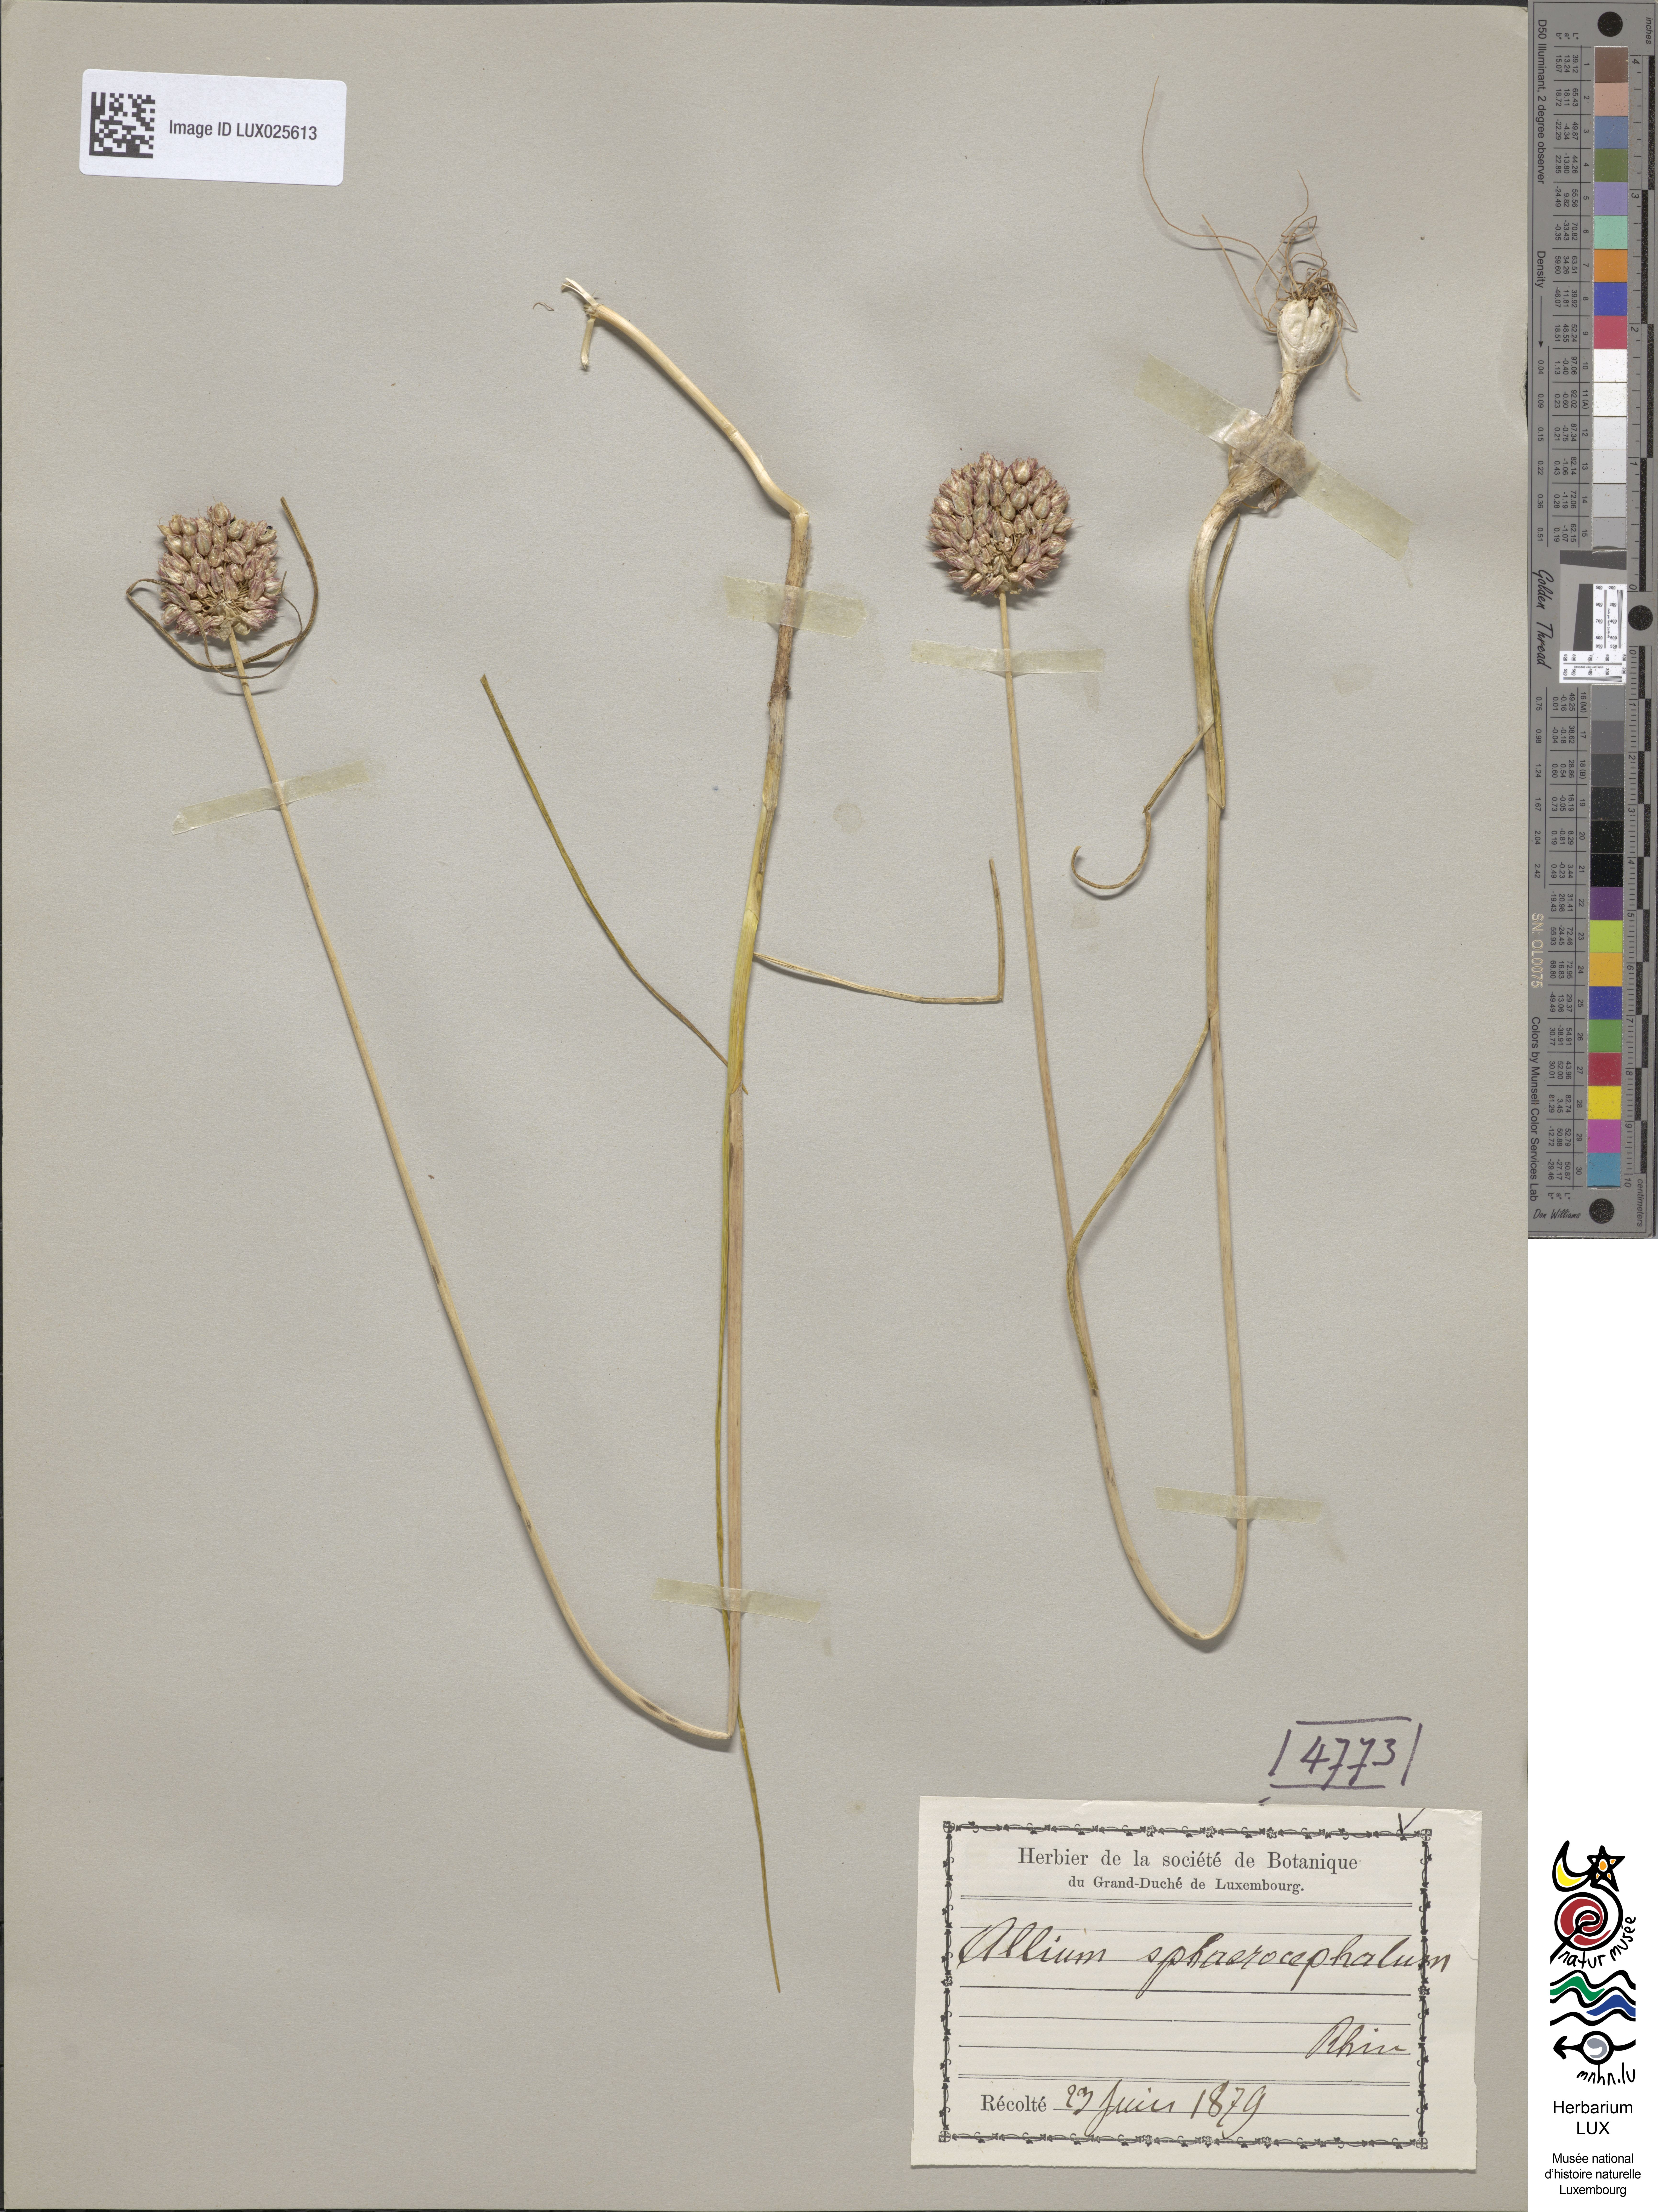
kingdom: Plantae
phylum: Tracheophyta
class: Liliopsida
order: Asparagales
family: Amaryllidaceae
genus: Allium
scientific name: Allium sphaerocephalon
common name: Round-headed leek
